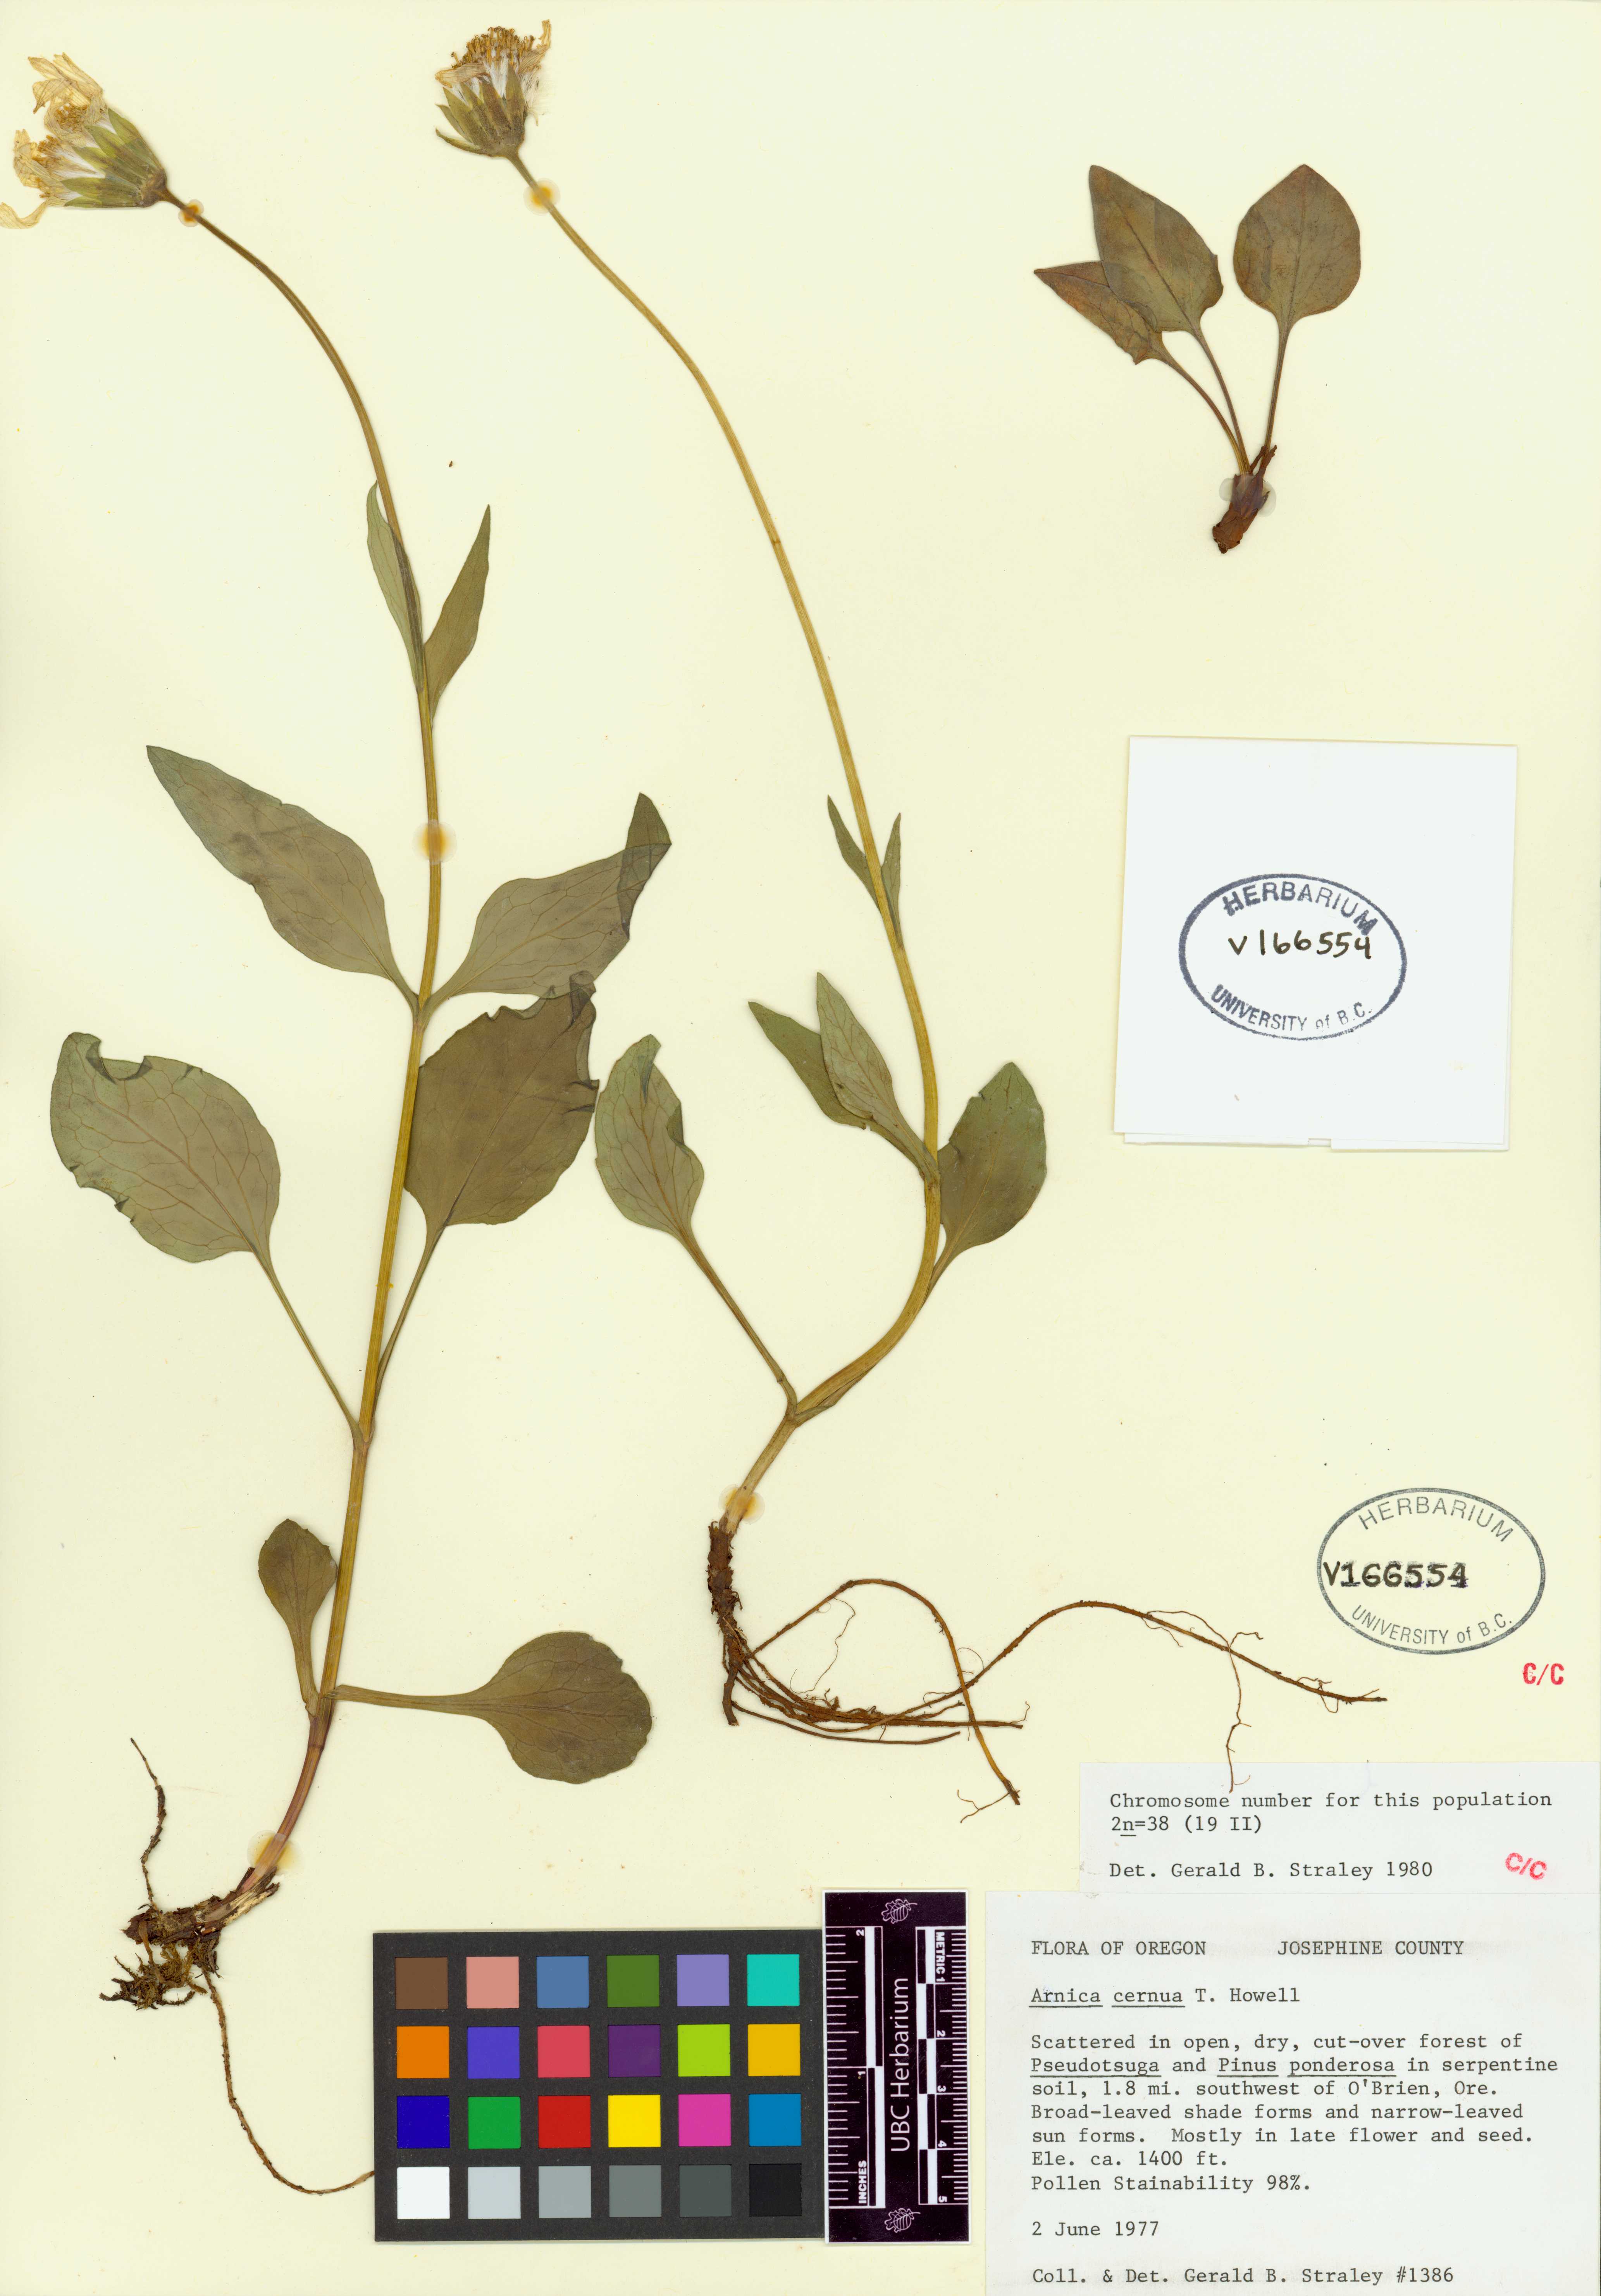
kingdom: Plantae
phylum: Tracheophyta
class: Magnoliopsida
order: Asterales
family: Asteraceae
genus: Arnica
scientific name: Arnica cernua
